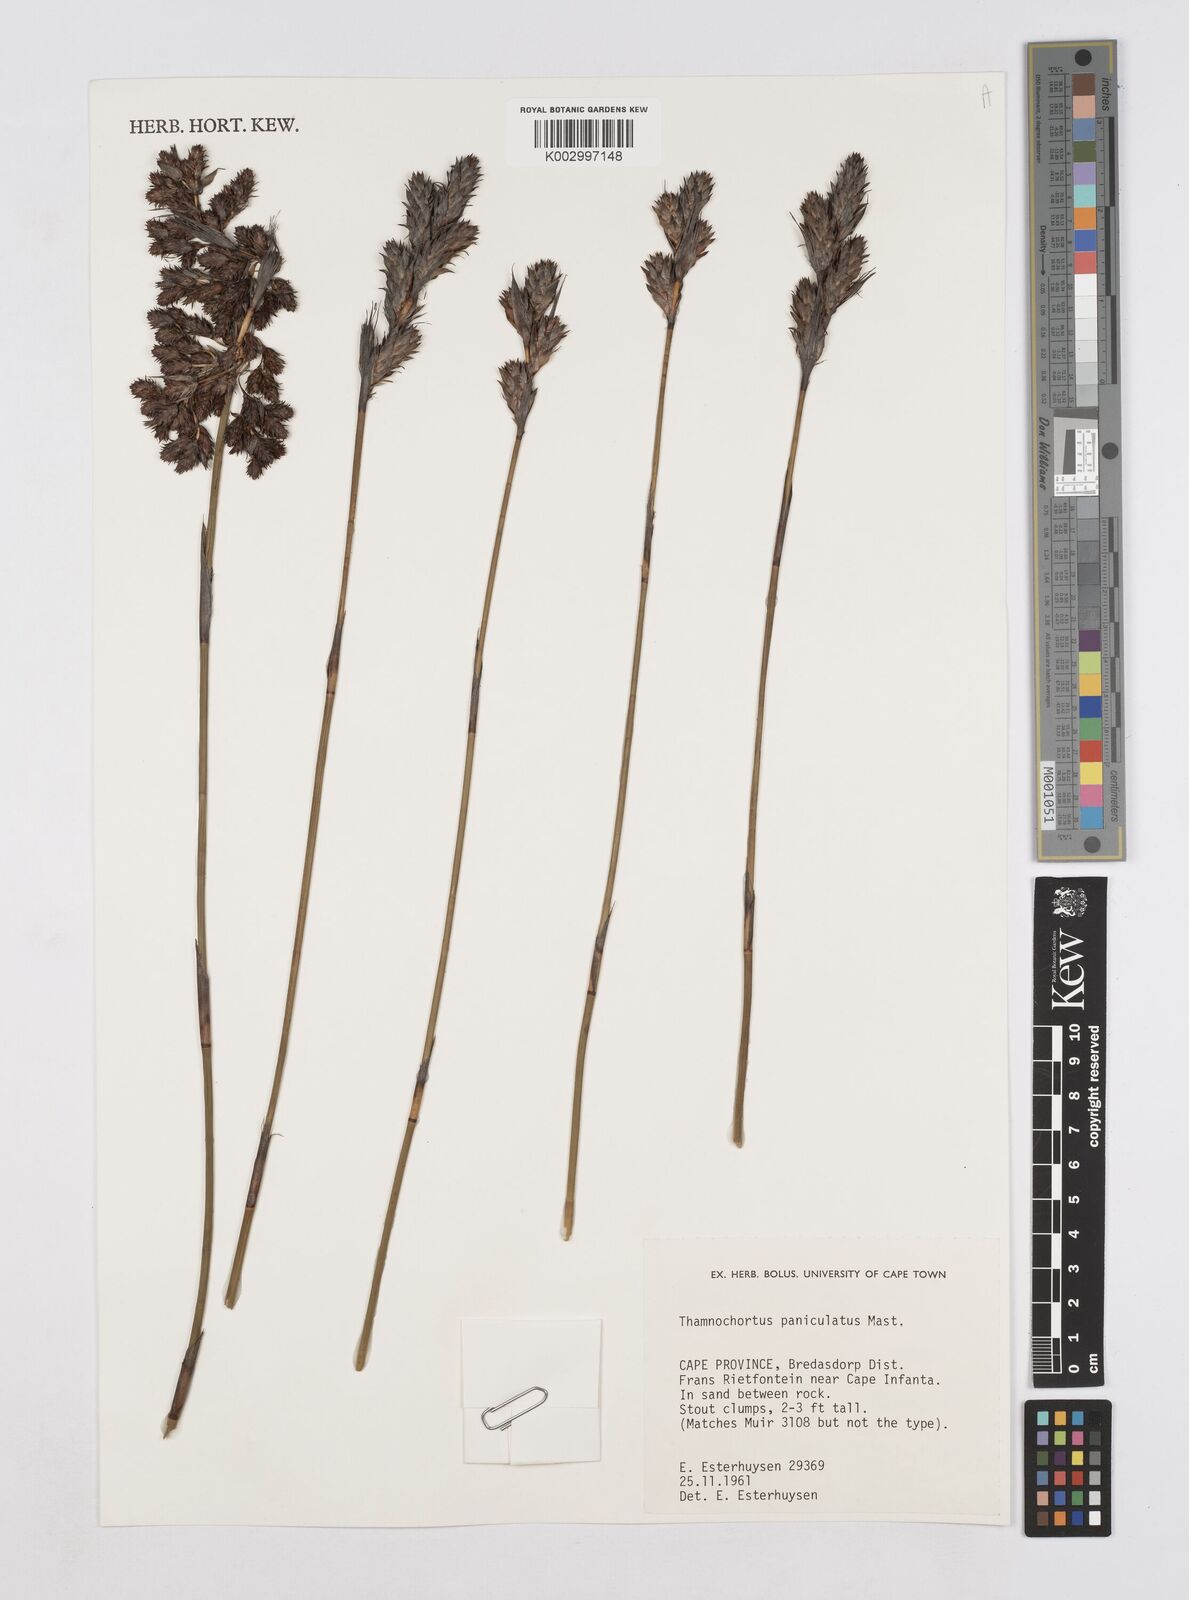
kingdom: Plantae
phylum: Tracheophyta
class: Liliopsida
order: Poales
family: Restionaceae
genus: Thamnochortus
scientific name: Thamnochortus paniculatus
